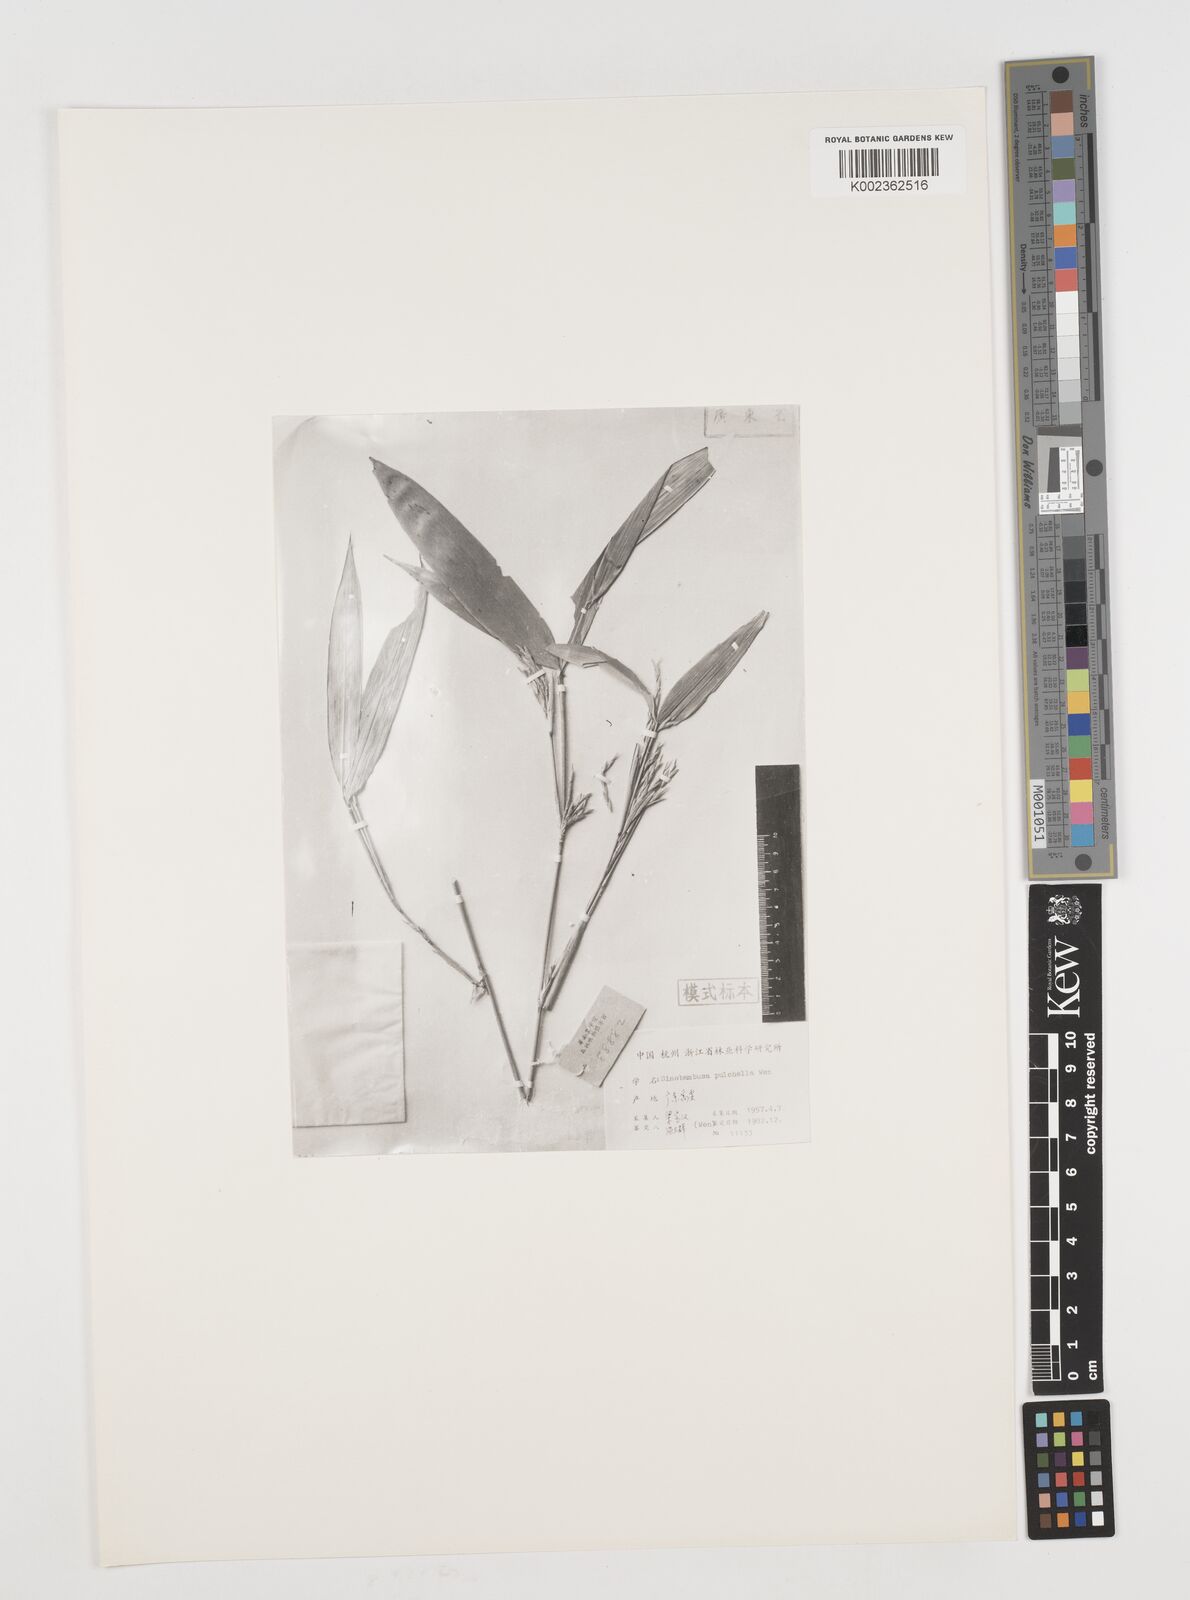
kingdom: Plantae
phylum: Tracheophyta
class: Liliopsida
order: Poales
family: Poaceae
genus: Pseudosasa
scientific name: Pseudosasa cantorii
